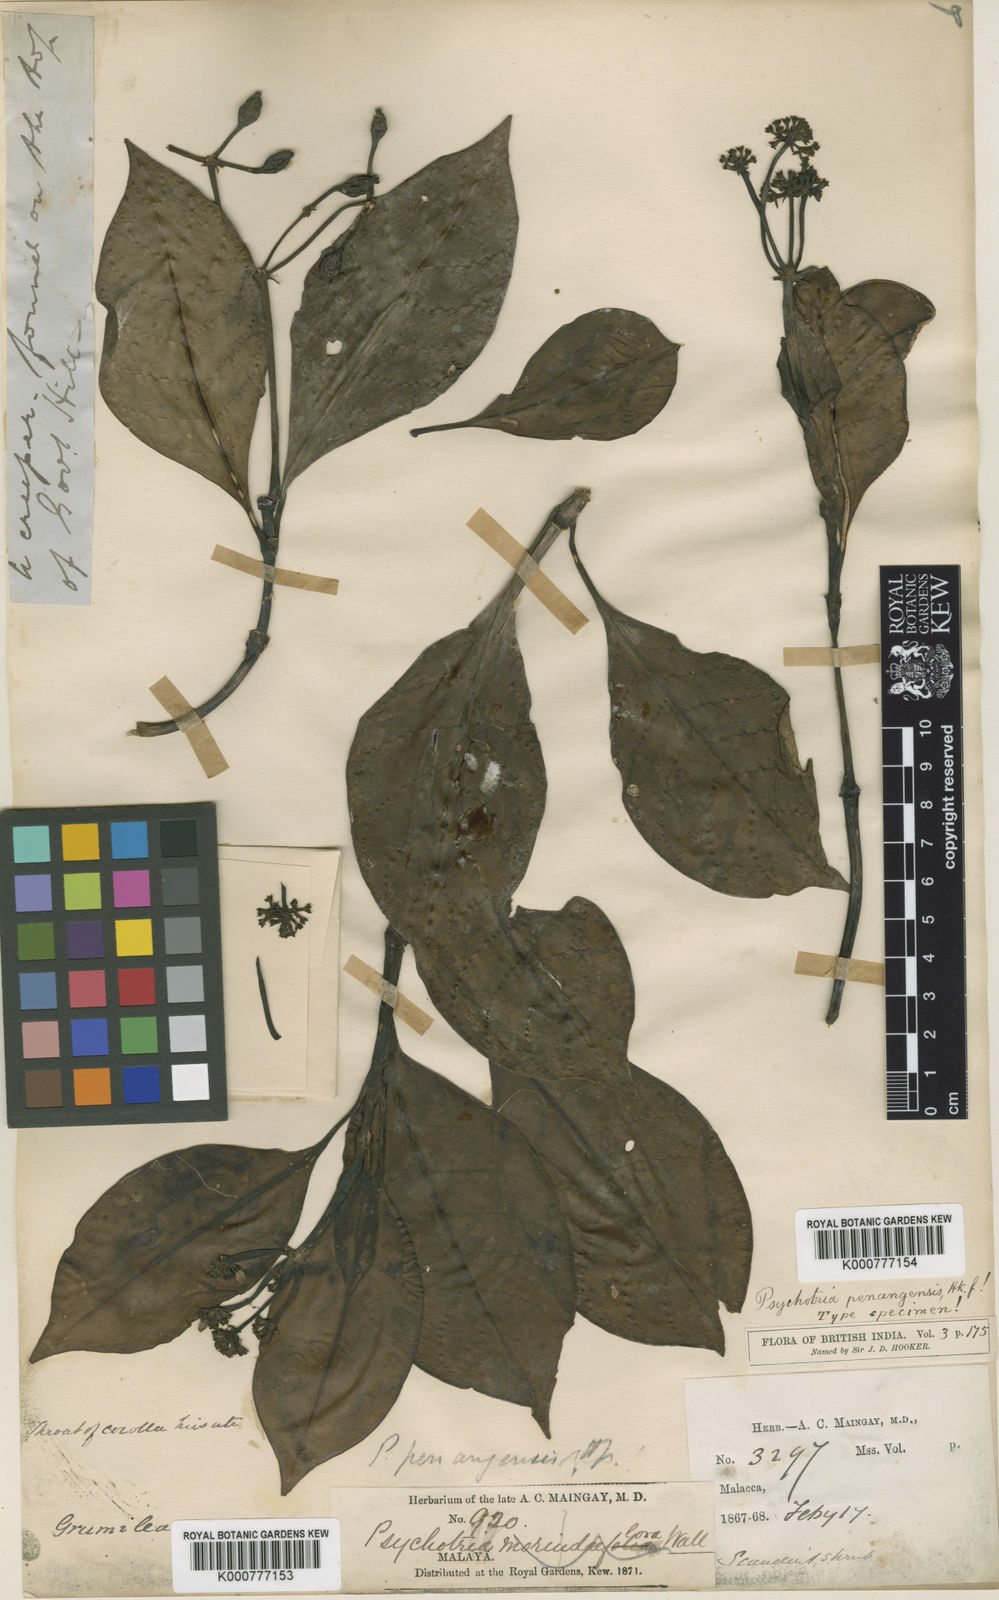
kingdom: Plantae
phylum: Tracheophyta
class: Magnoliopsida
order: Gentianales
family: Rubiaceae
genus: Psychotria
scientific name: Psychotria penangensis
